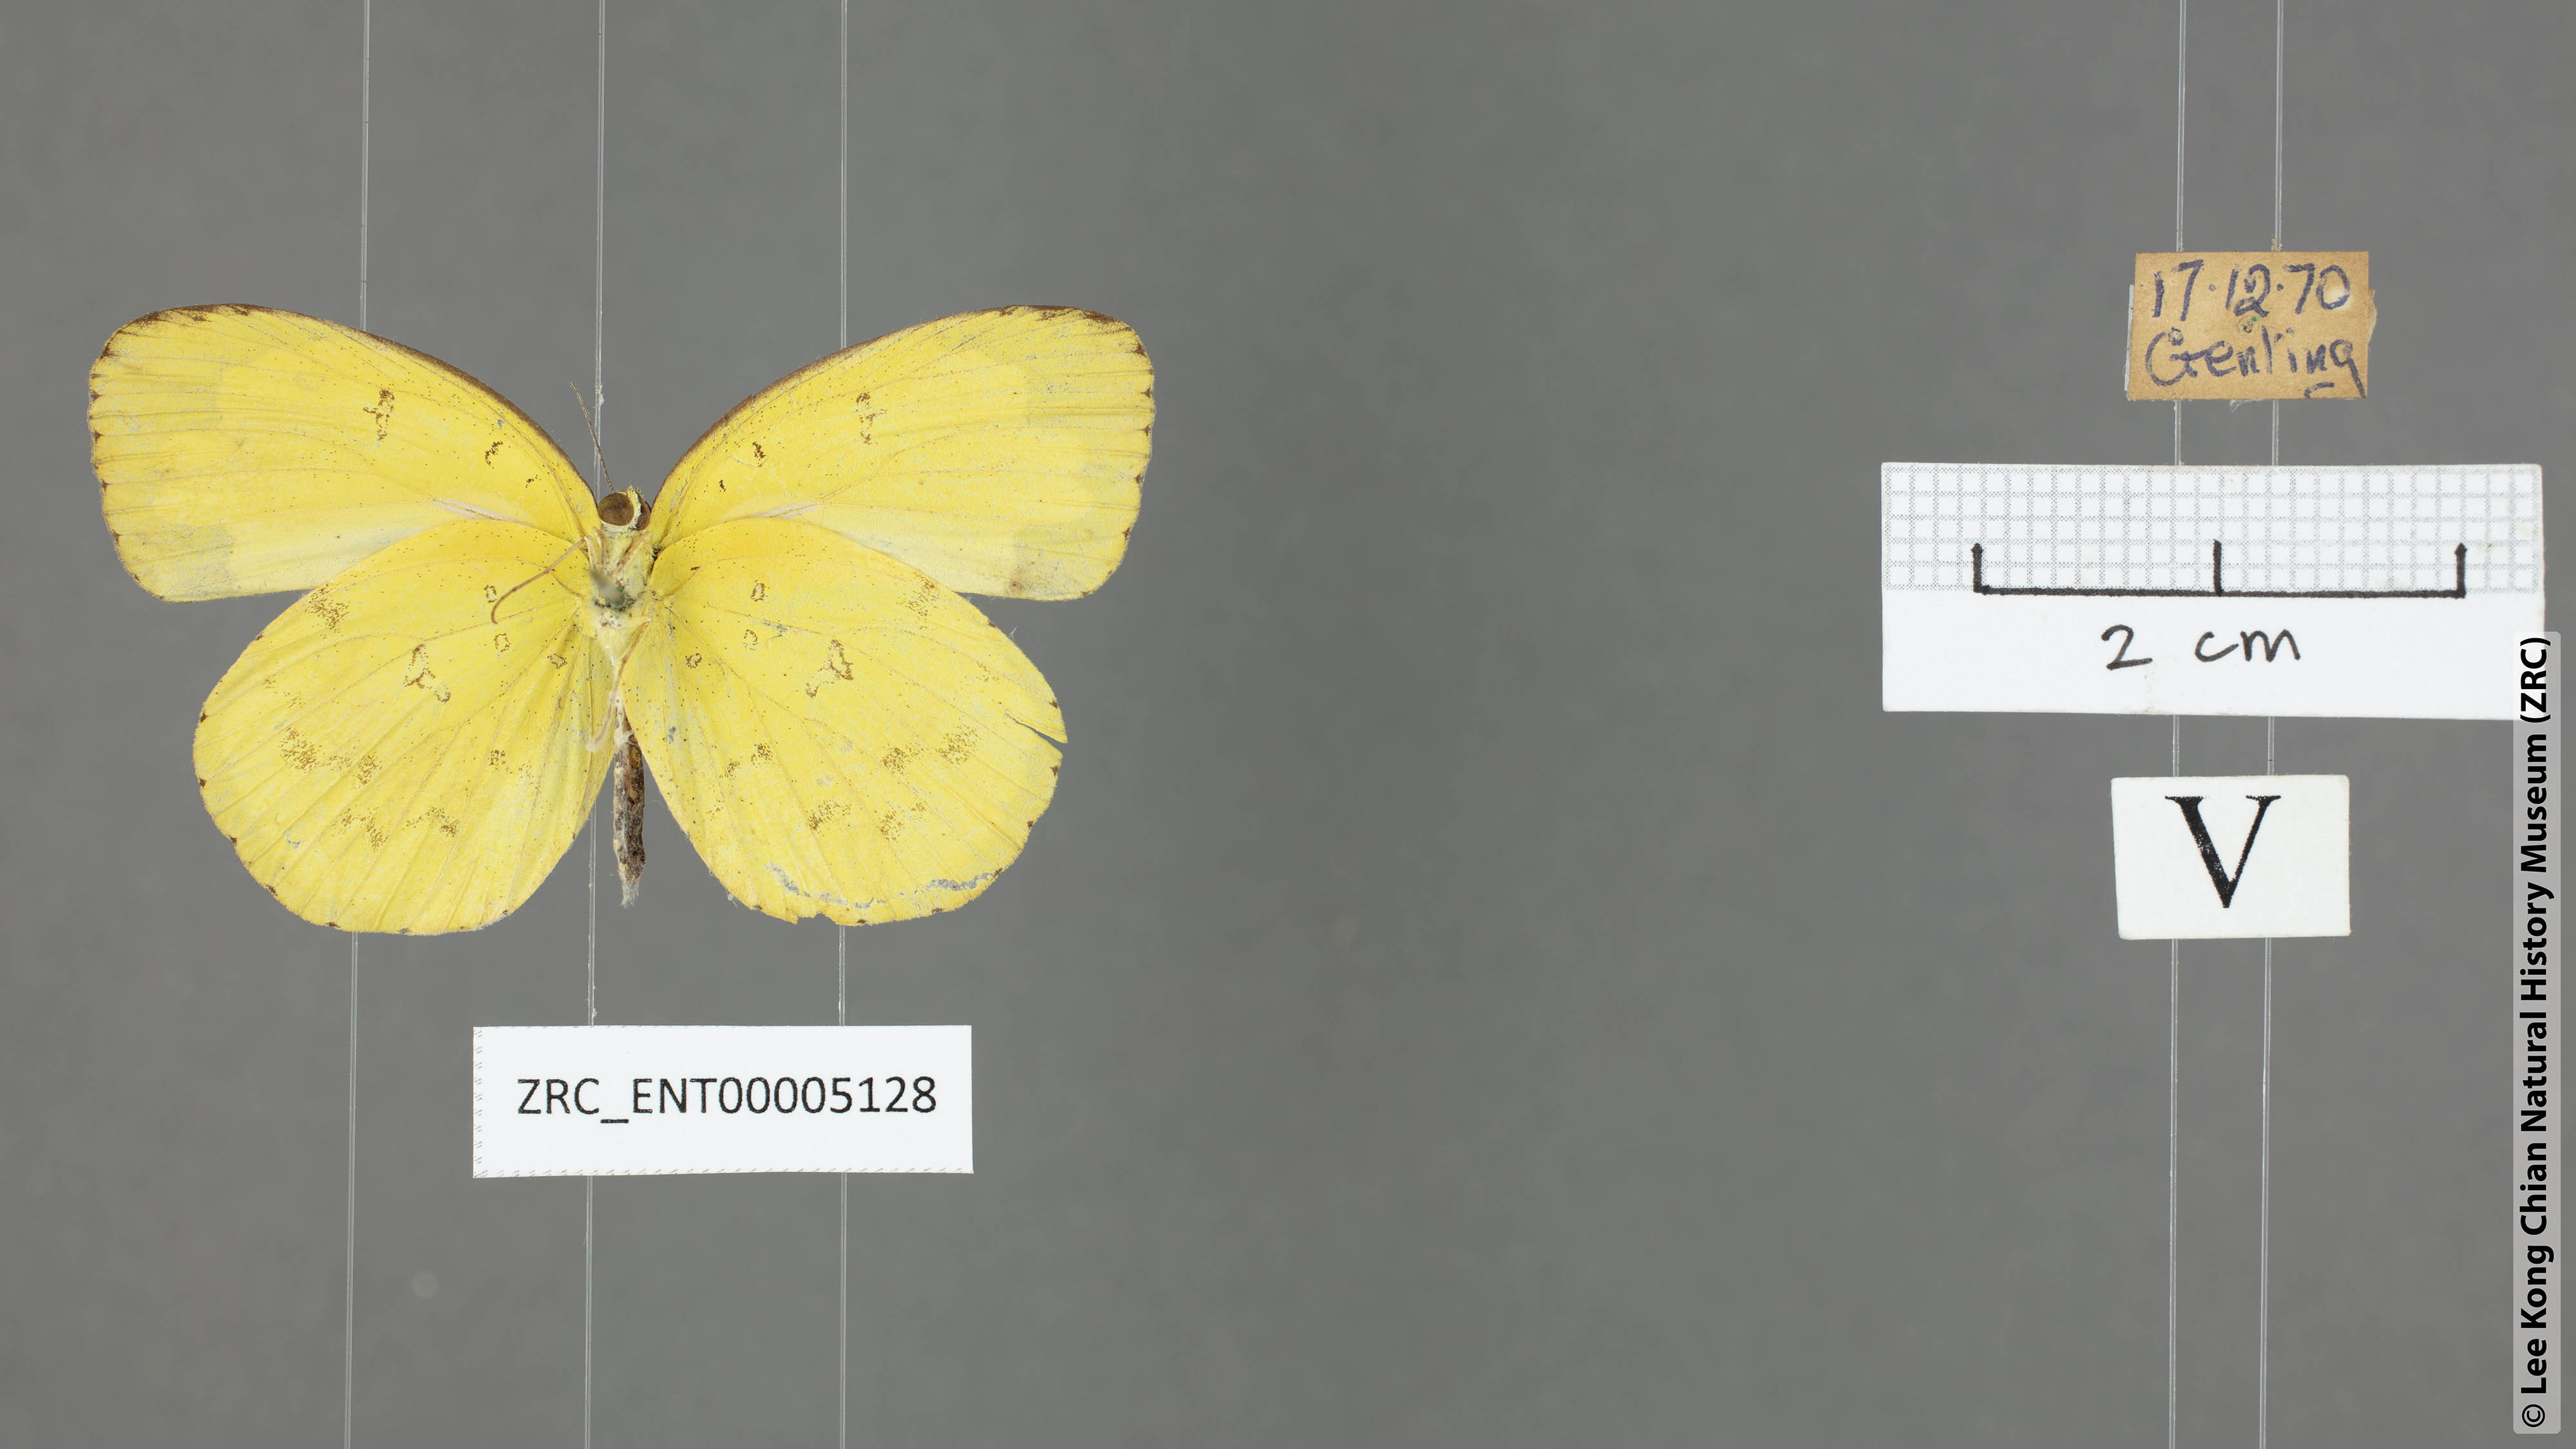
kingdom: Animalia
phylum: Arthropoda
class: Insecta
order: Lepidoptera
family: Pieridae
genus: Eurema
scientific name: Eurema hecabe
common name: Pale grass yellow
